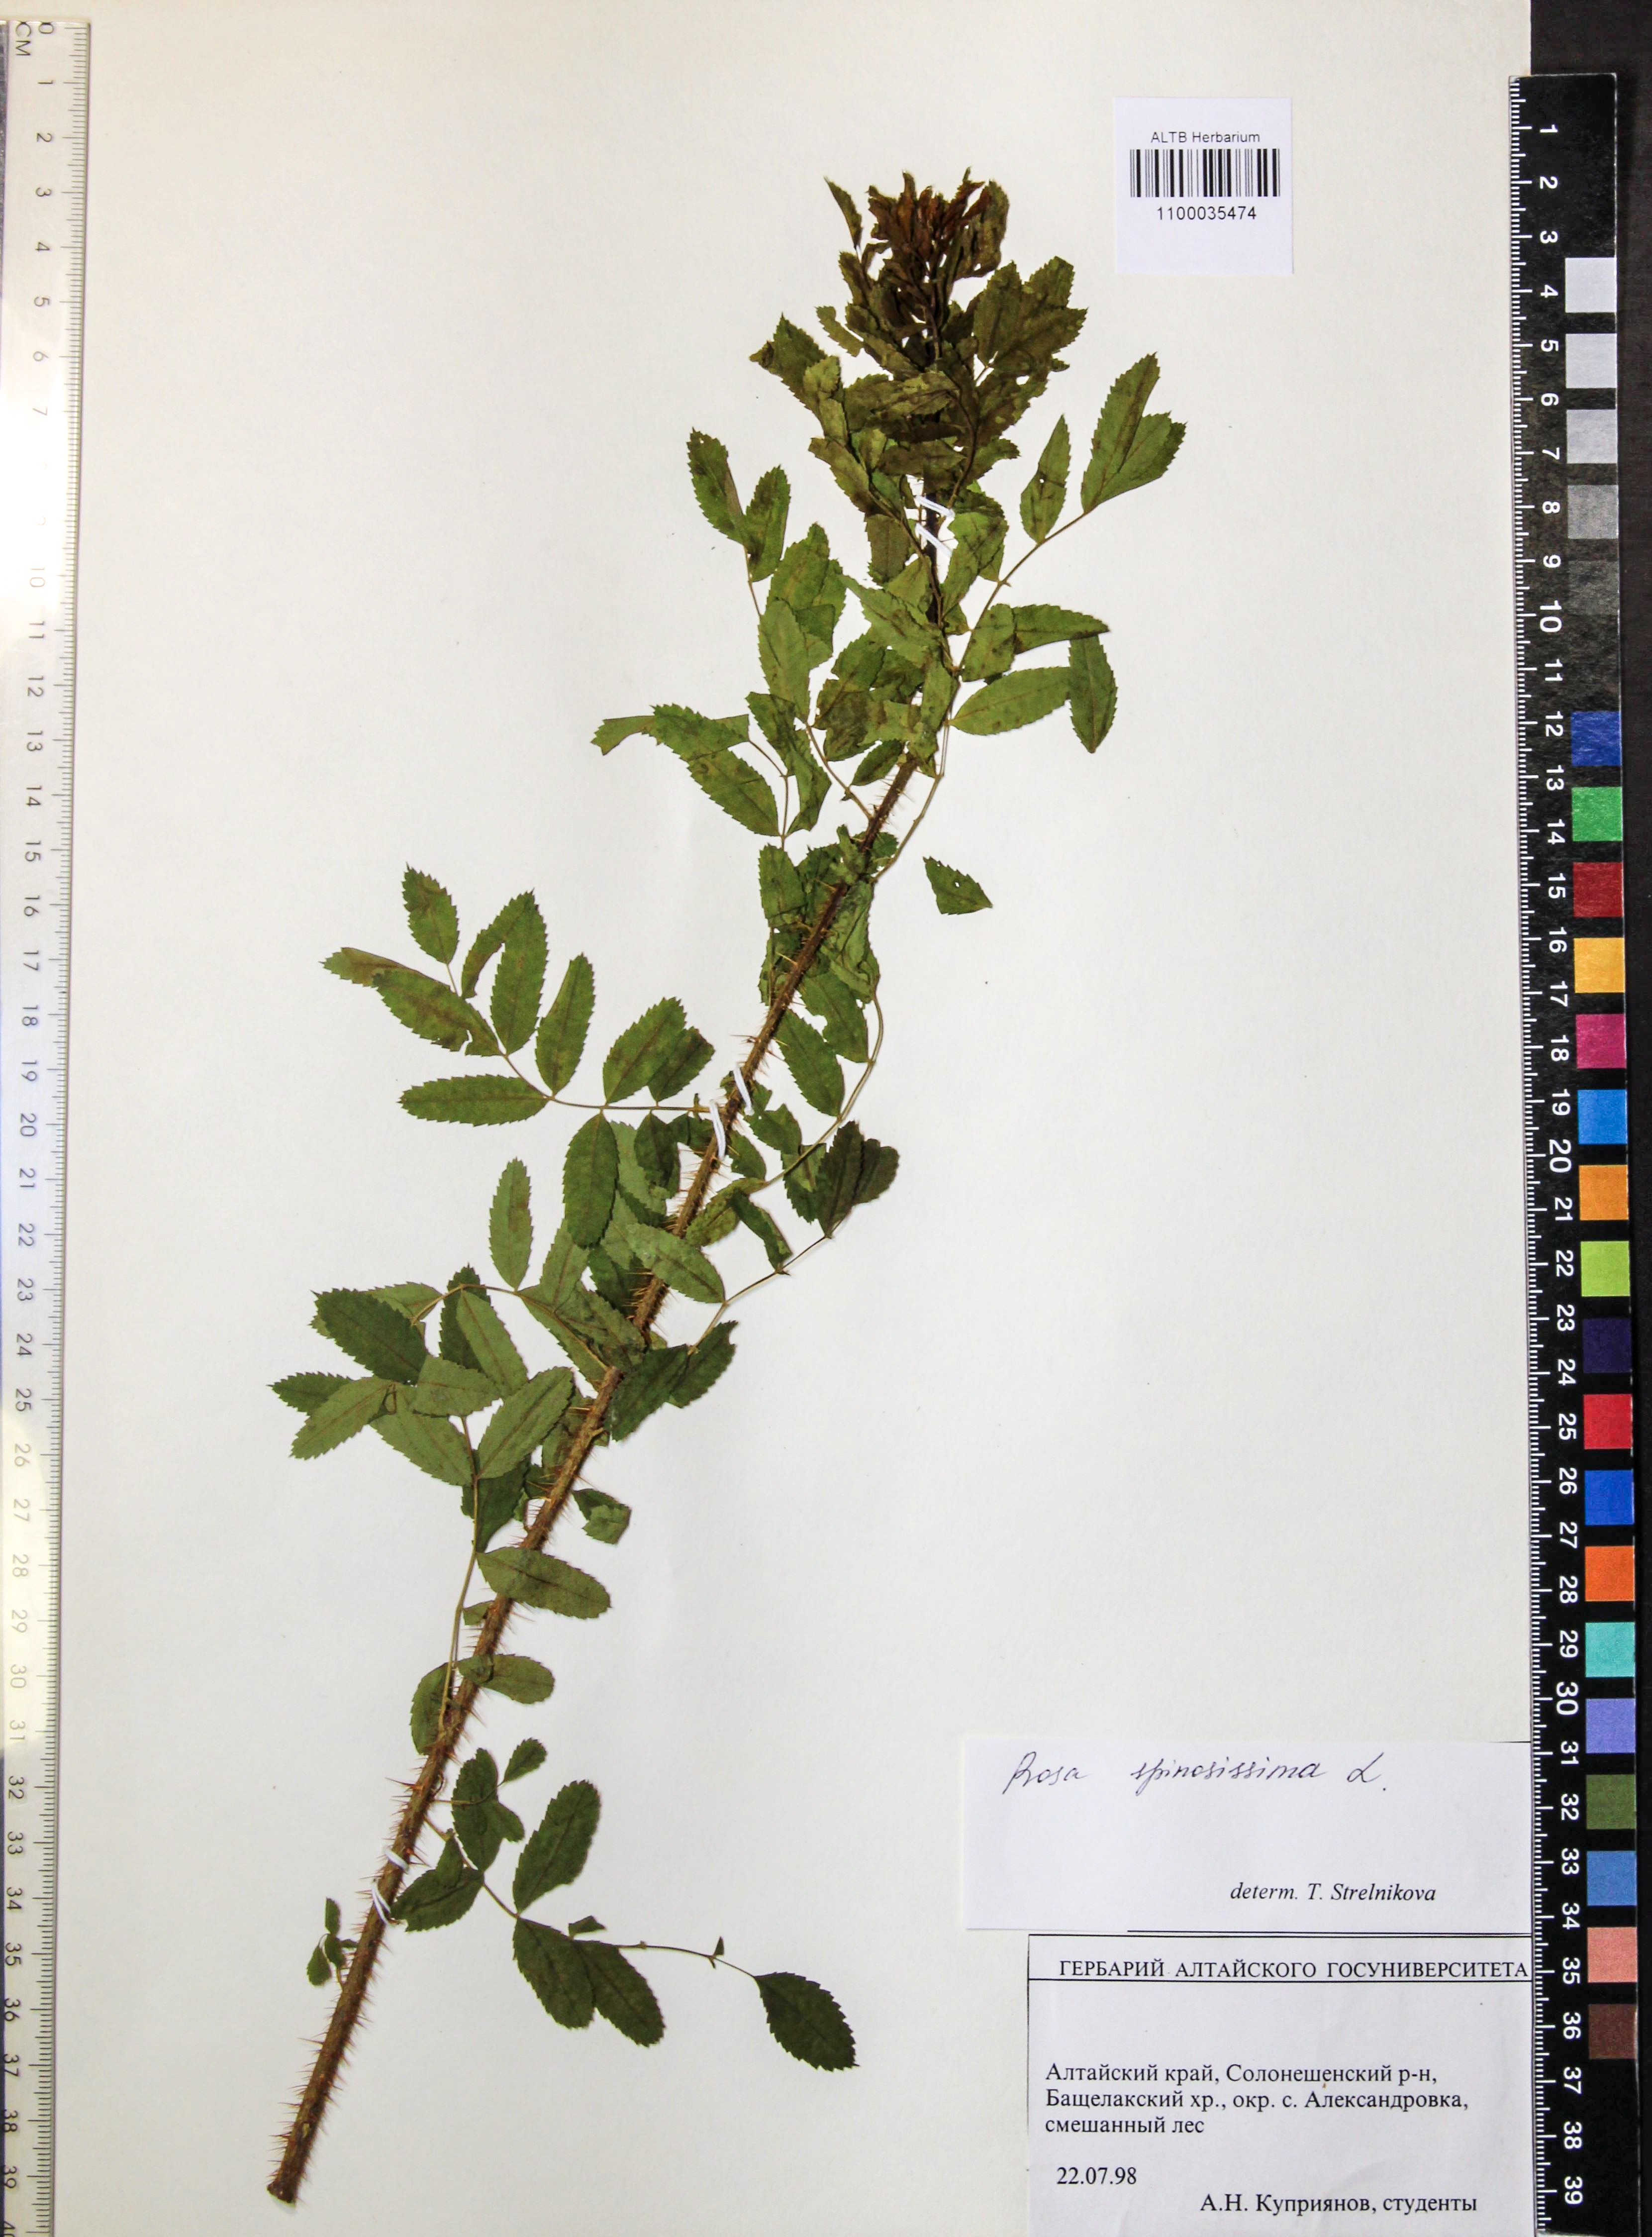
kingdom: Plantae
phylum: Tracheophyta
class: Magnoliopsida
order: Rosales
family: Rosaceae
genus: Rosa
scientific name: Rosa spinosissima
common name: Burnet rose
